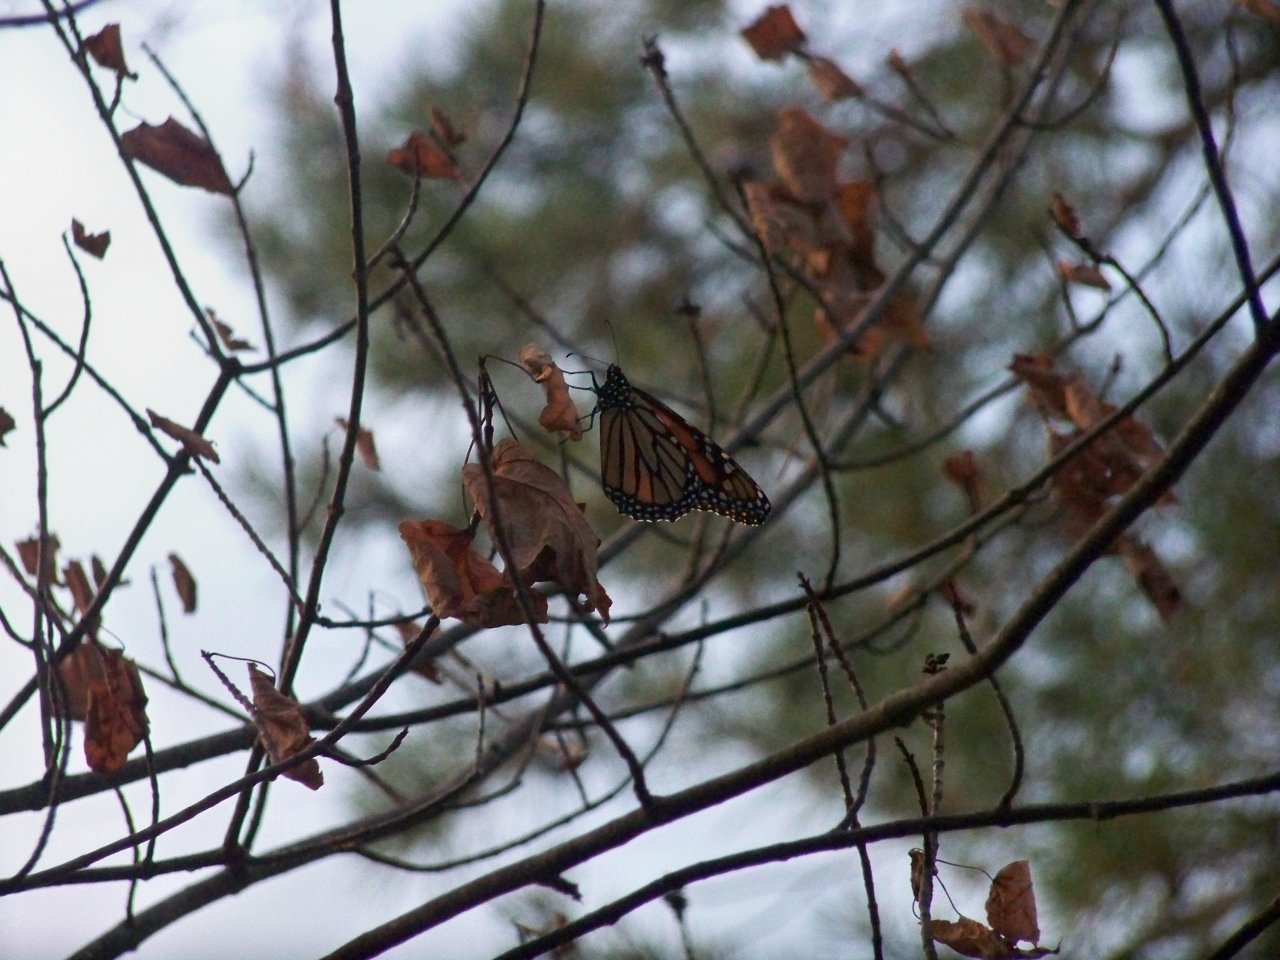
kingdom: Animalia
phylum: Arthropoda
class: Insecta
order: Lepidoptera
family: Nymphalidae
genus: Danaus
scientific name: Danaus plexippus
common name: Monarch
